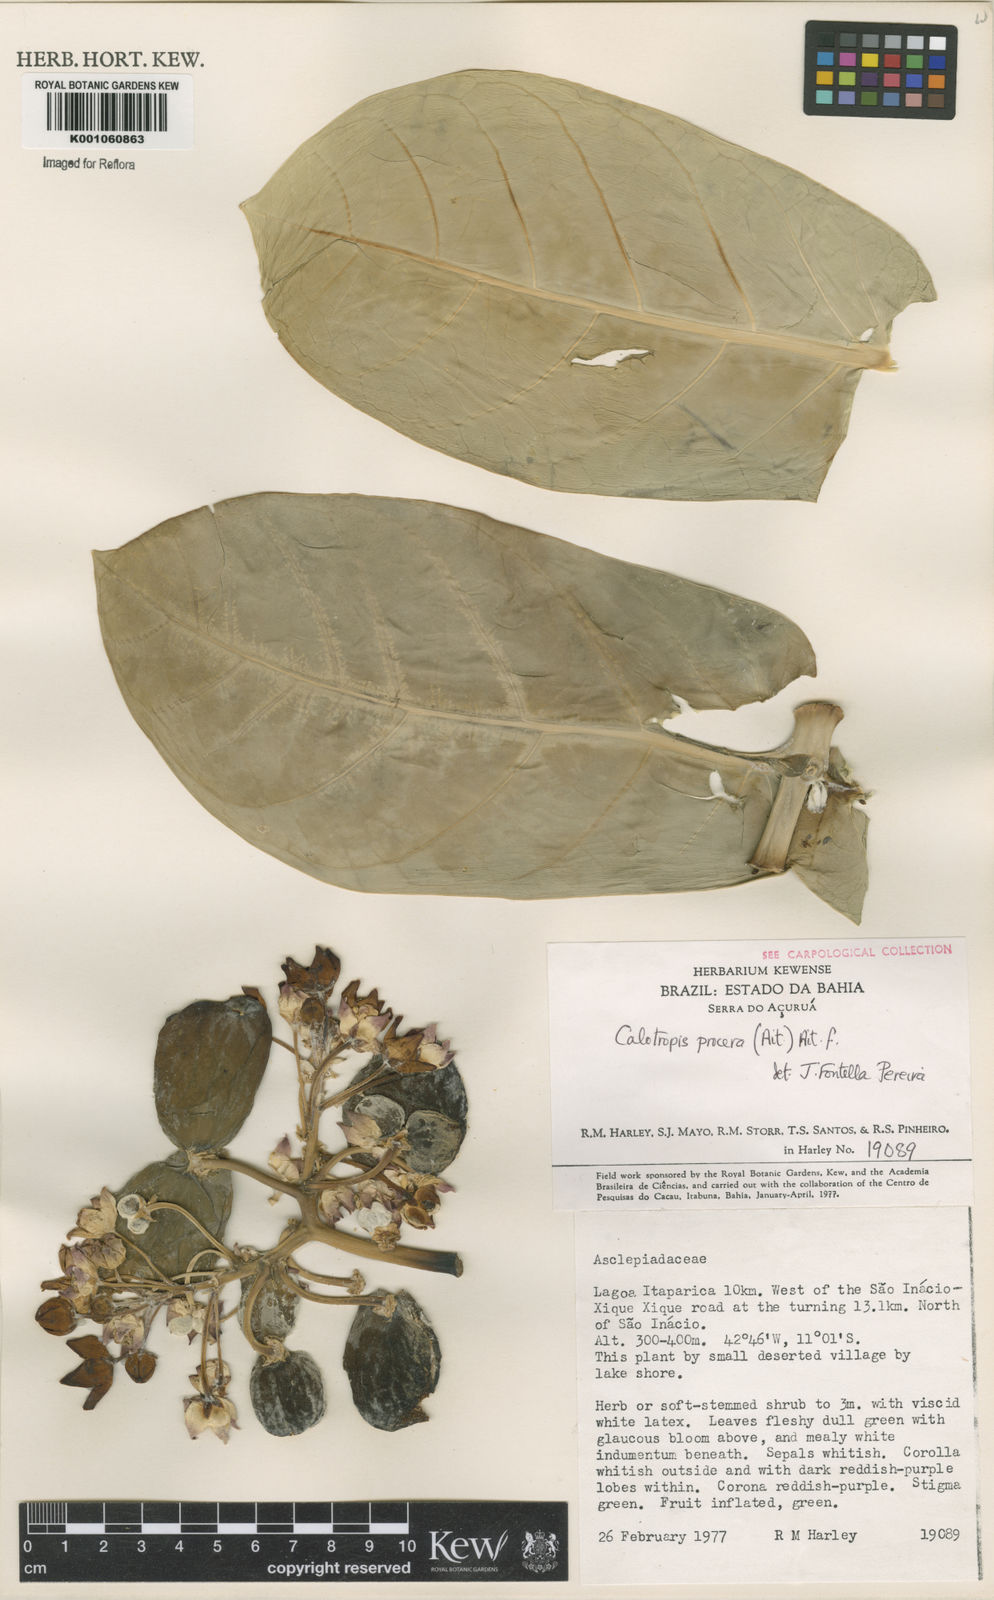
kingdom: Plantae
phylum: Tracheophyta
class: Magnoliopsida
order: Gentianales
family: Apocynaceae
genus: Calotropis
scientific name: Calotropis procera
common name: Roostertree
